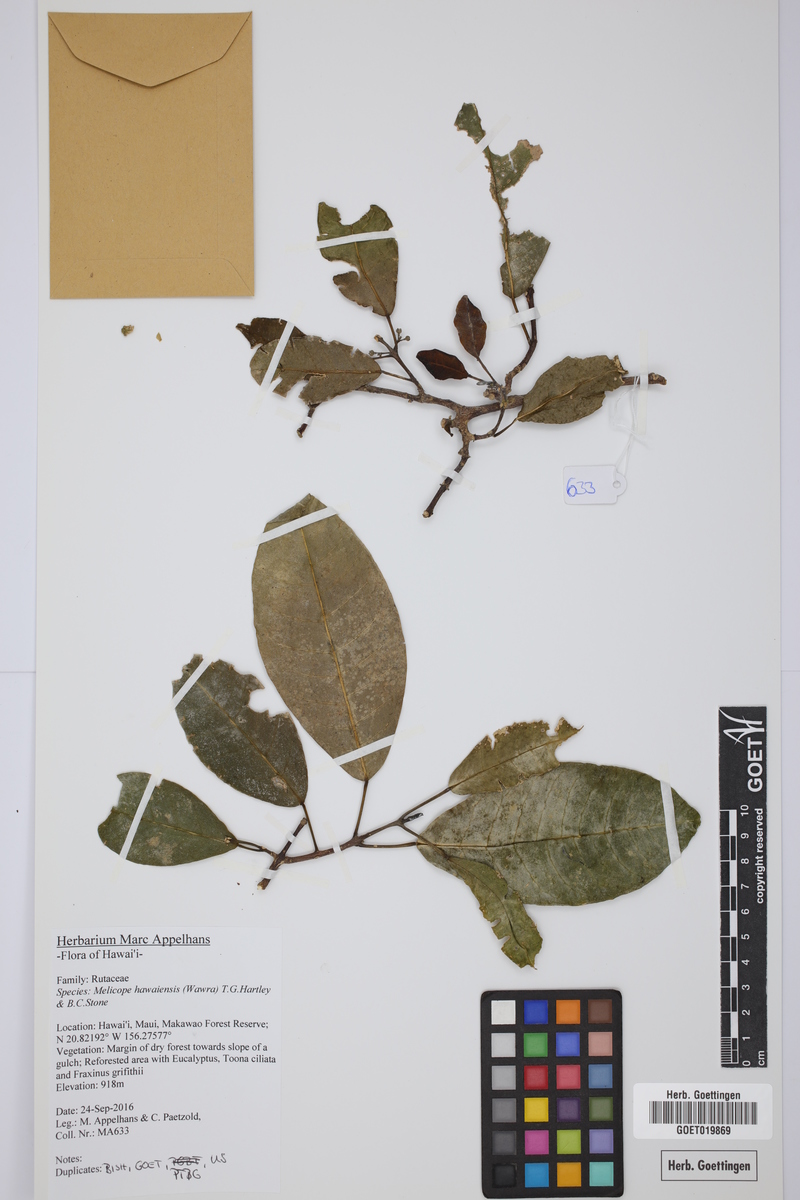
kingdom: Plantae
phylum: Tracheophyta
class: Magnoliopsida
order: Sapindales
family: Rutaceae
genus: Melicope
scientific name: Melicope hawaiensis
